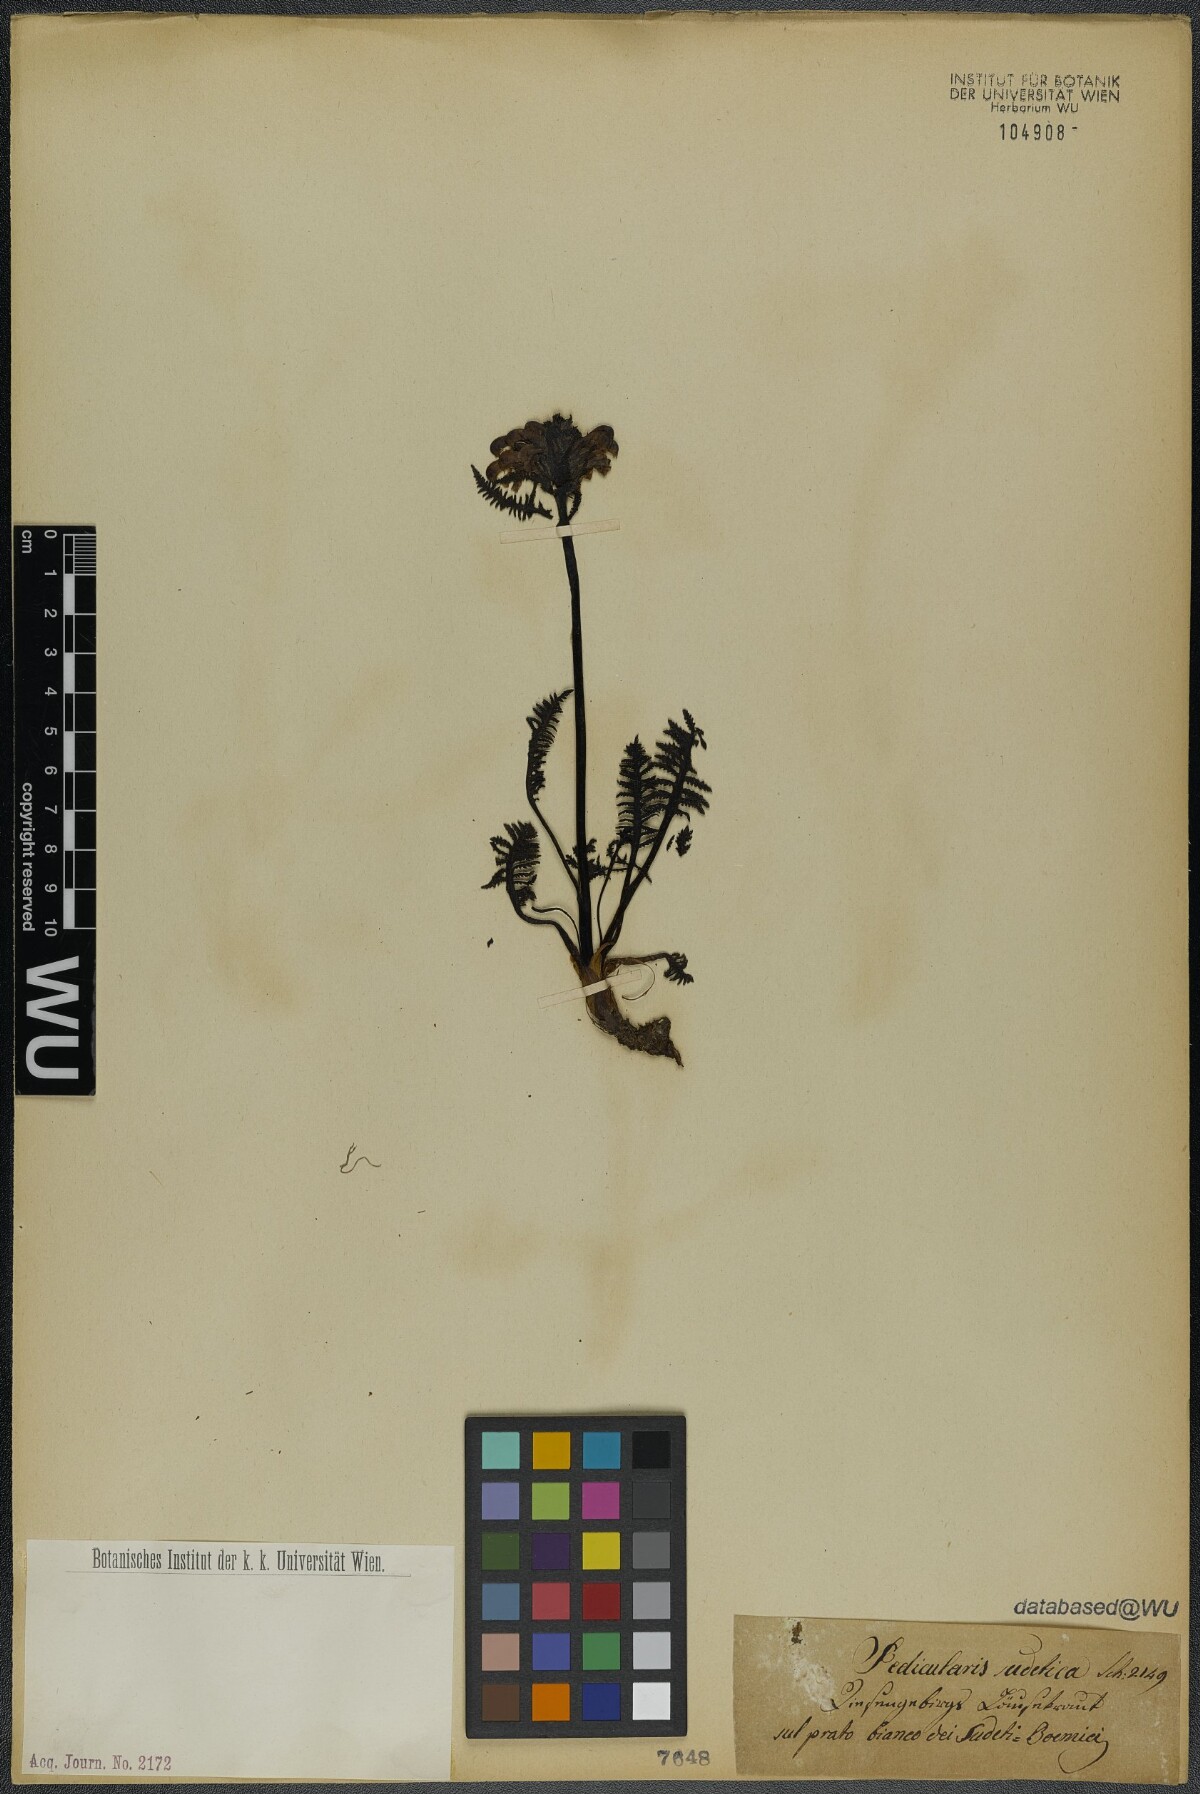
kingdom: Plantae
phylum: Tracheophyta
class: Magnoliopsida
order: Lamiales
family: Orobanchaceae
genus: Pedicularis
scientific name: Pedicularis sudetica
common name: Sudeten lousewort
